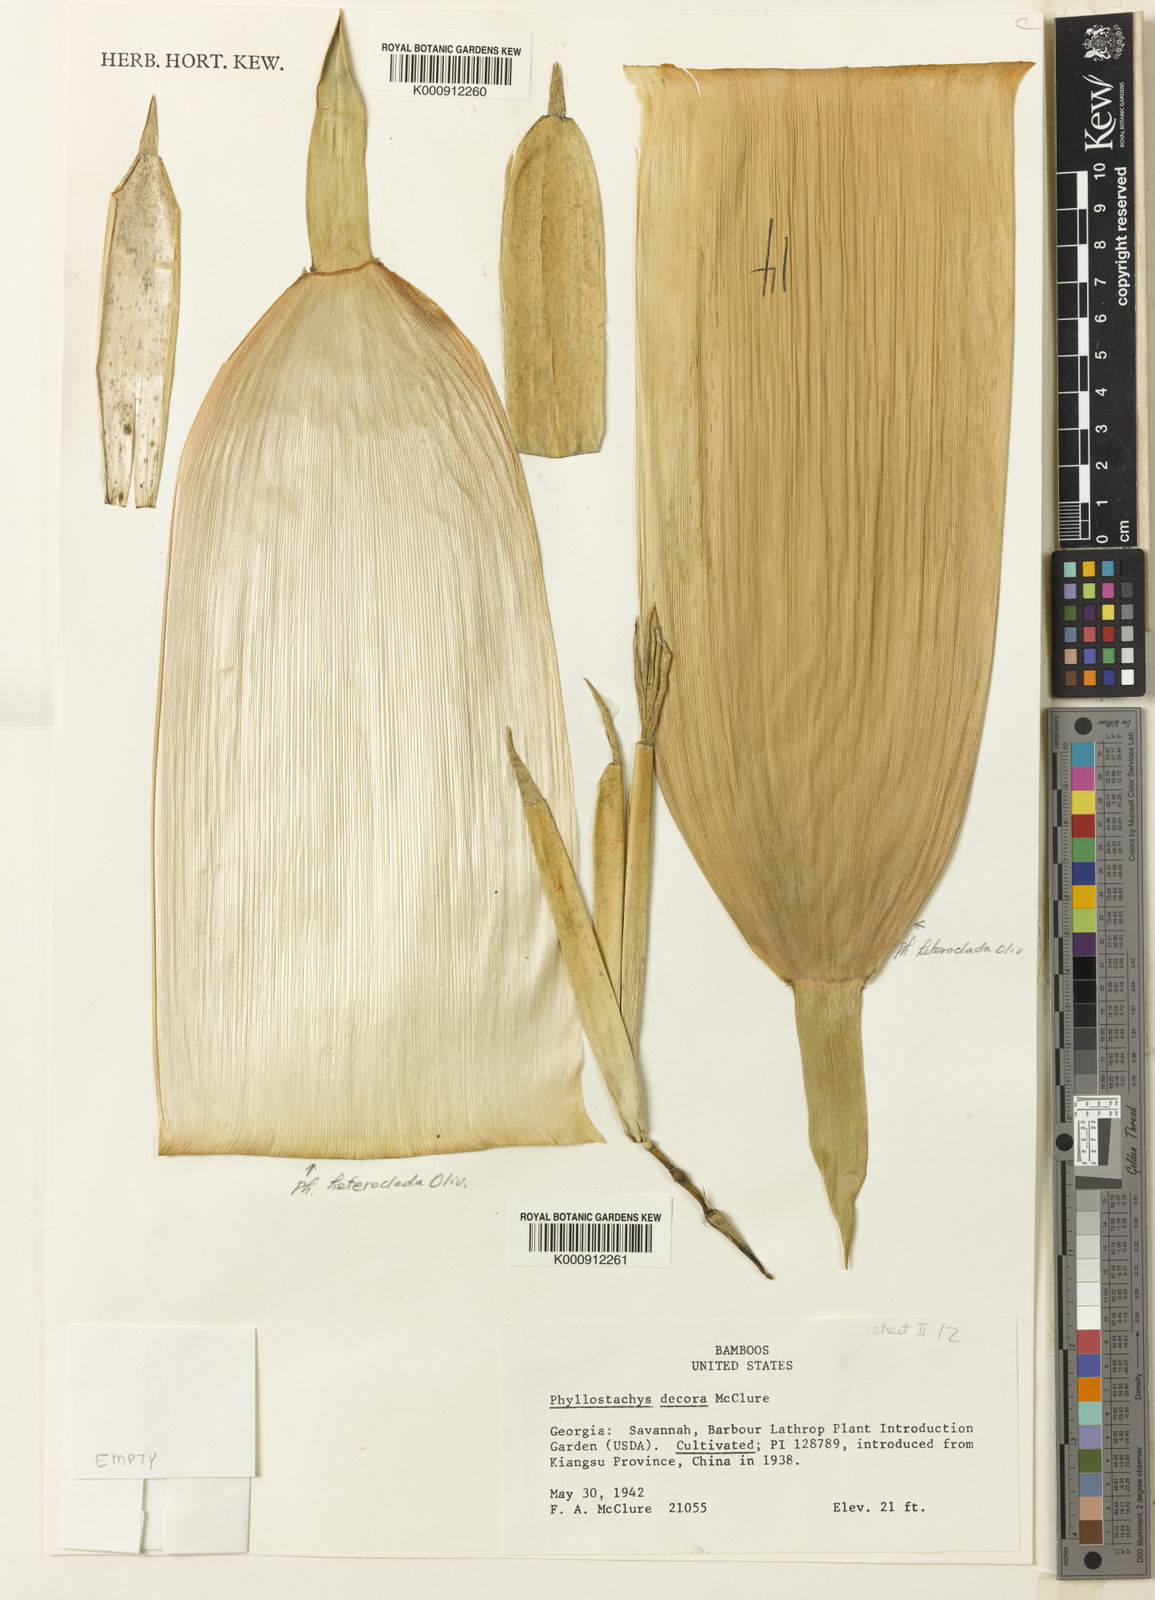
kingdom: Plantae
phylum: Tracheophyta
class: Liliopsida
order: Poales
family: Poaceae
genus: Phyllostachys
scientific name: Phyllostachys mannii
